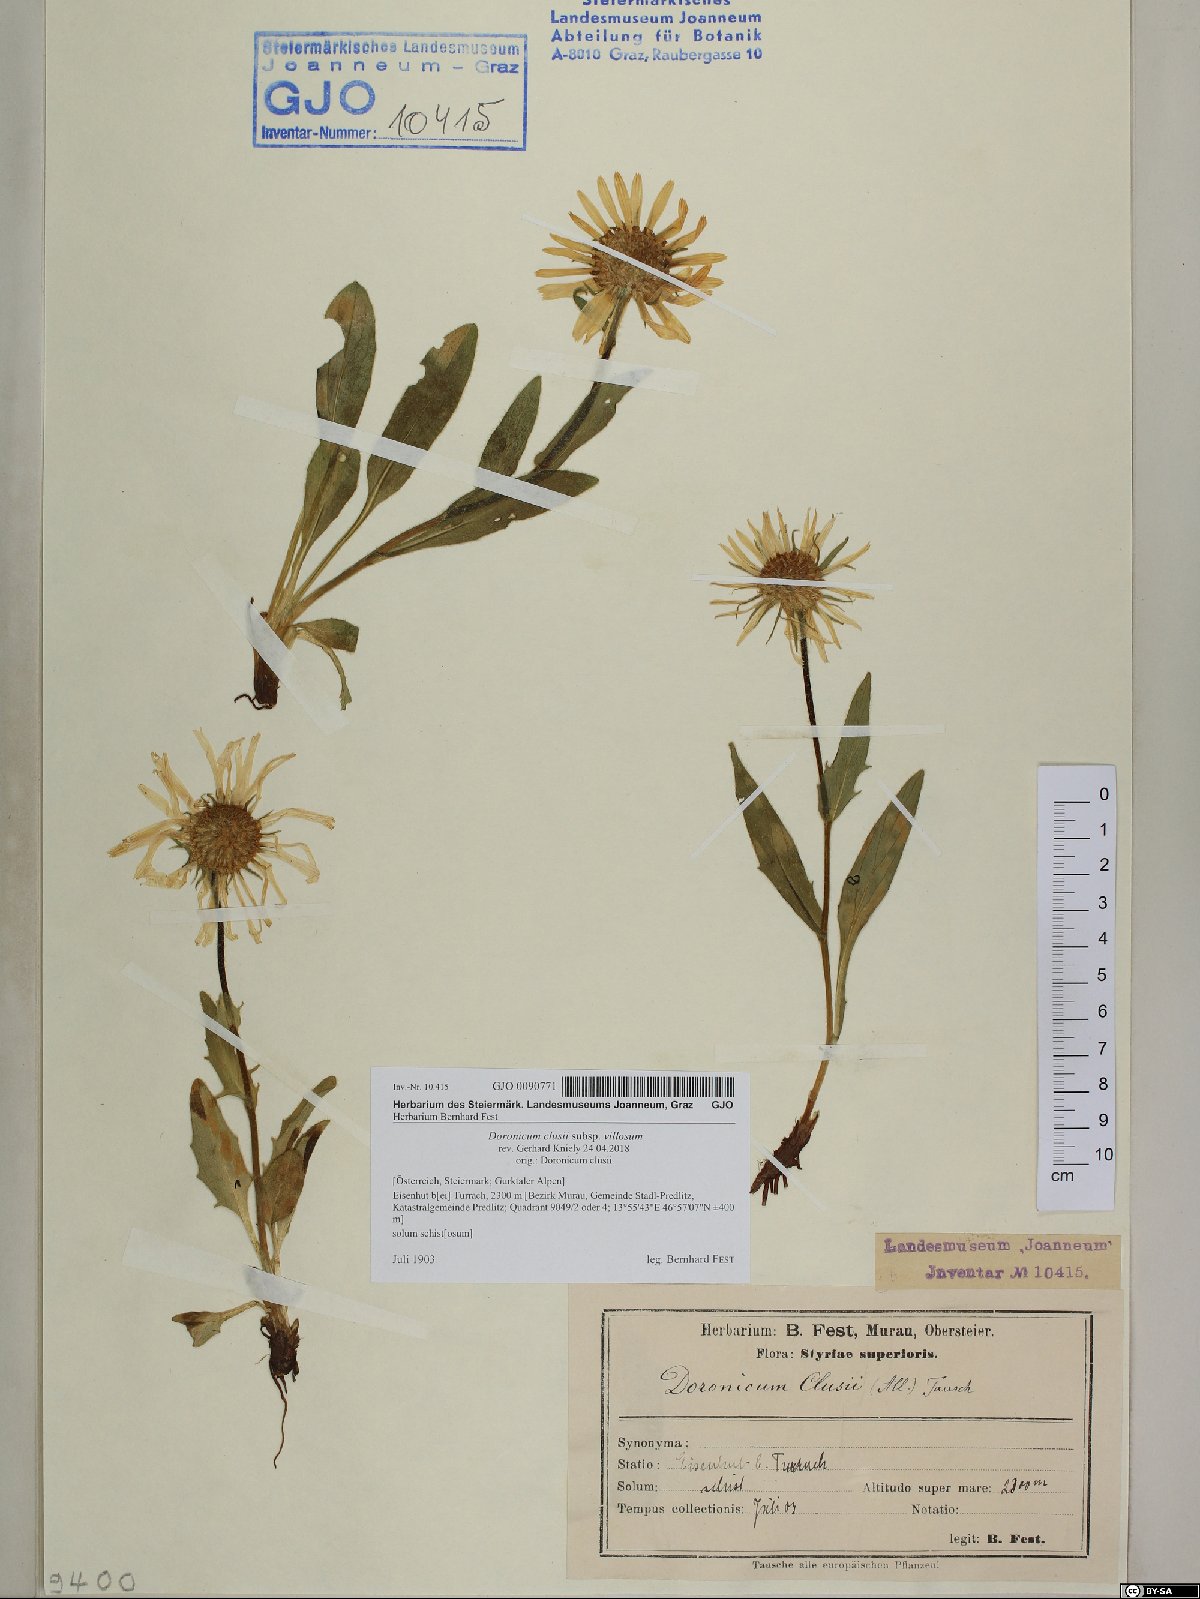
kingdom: Plantae
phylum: Tracheophyta
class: Magnoliopsida
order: Asterales
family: Asteraceae
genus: Doronicum
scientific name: Doronicum clusii
